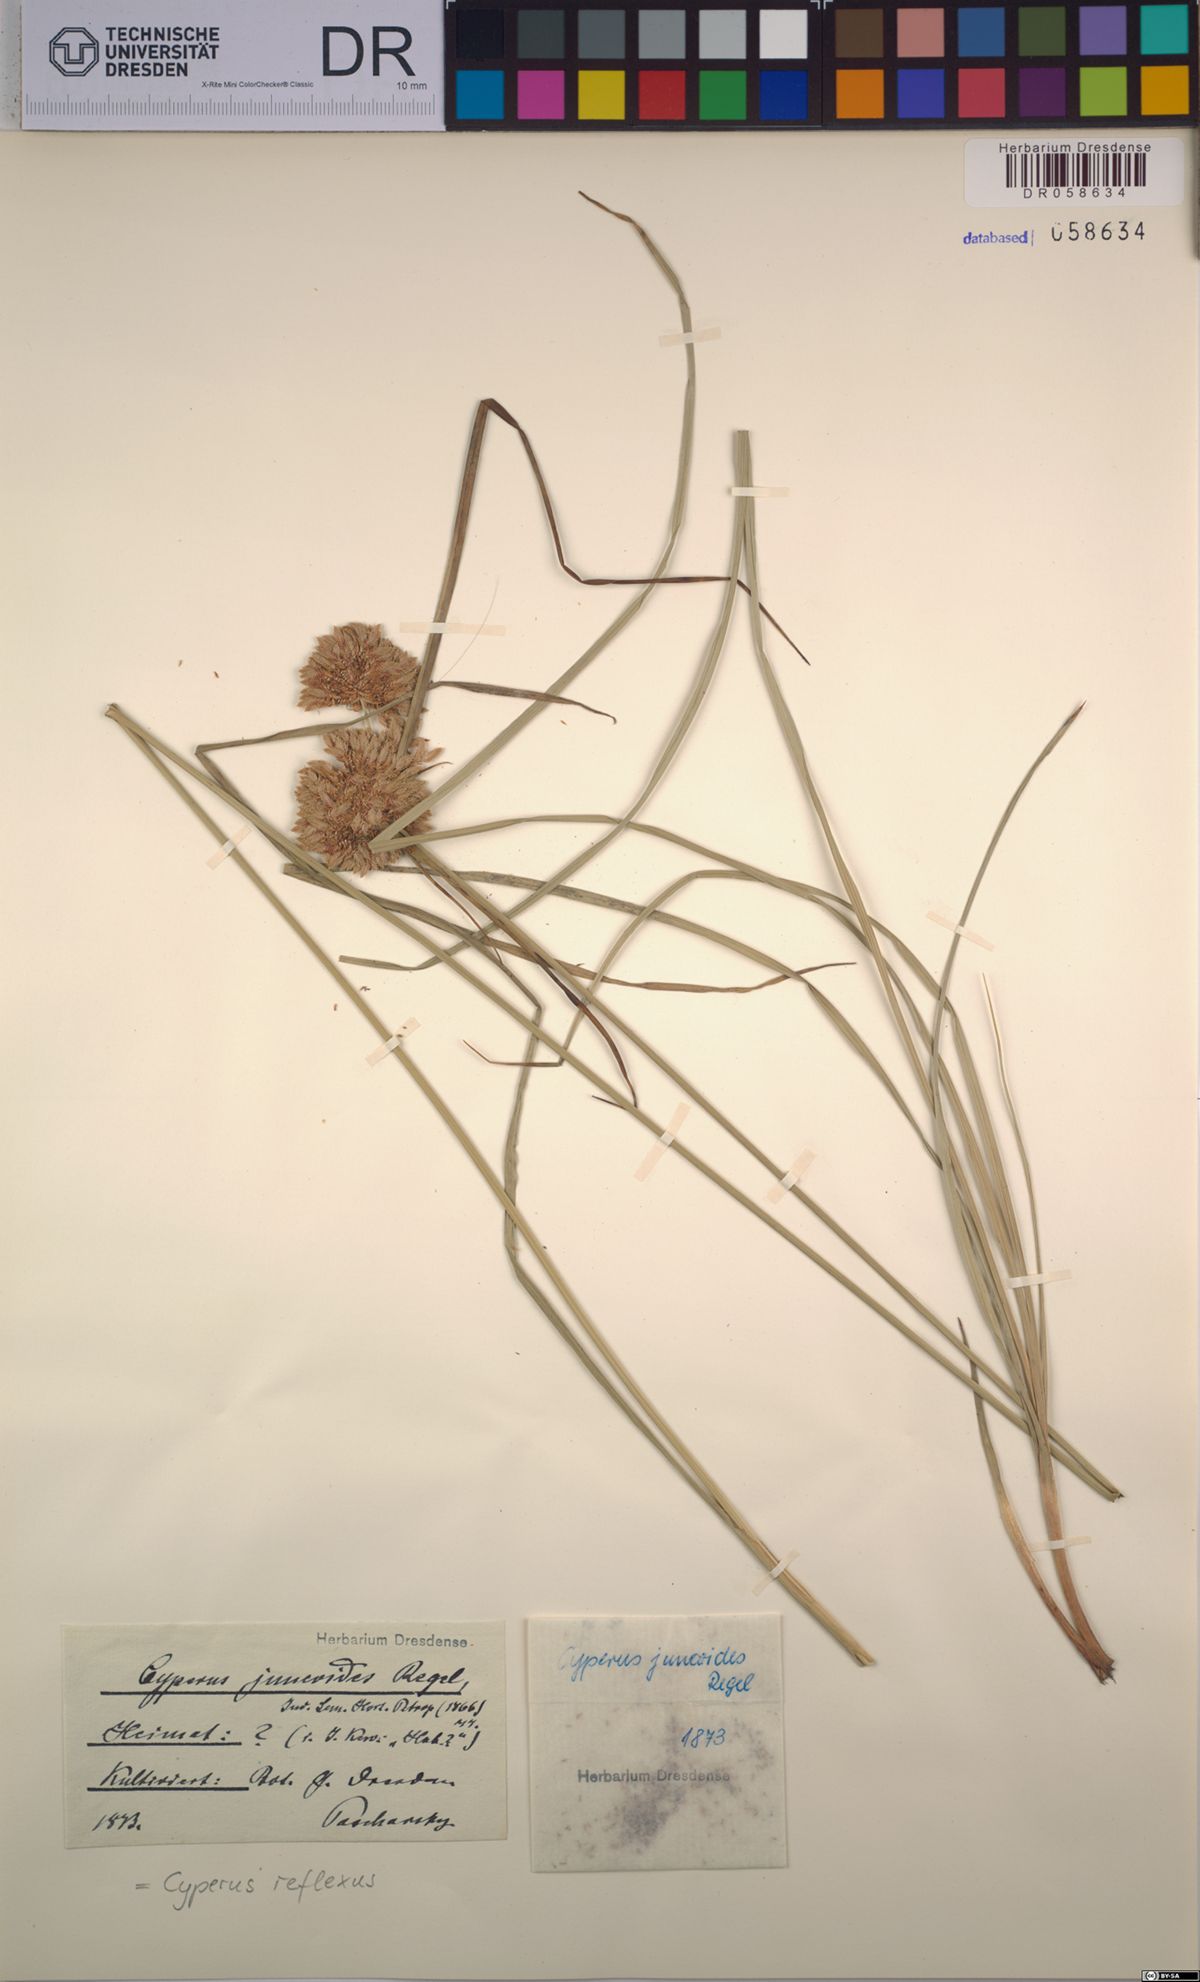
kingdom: Plantae
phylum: Tracheophyta
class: Liliopsida
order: Poales
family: Cyperaceae
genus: Cyperus
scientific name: Cyperus reflexus
